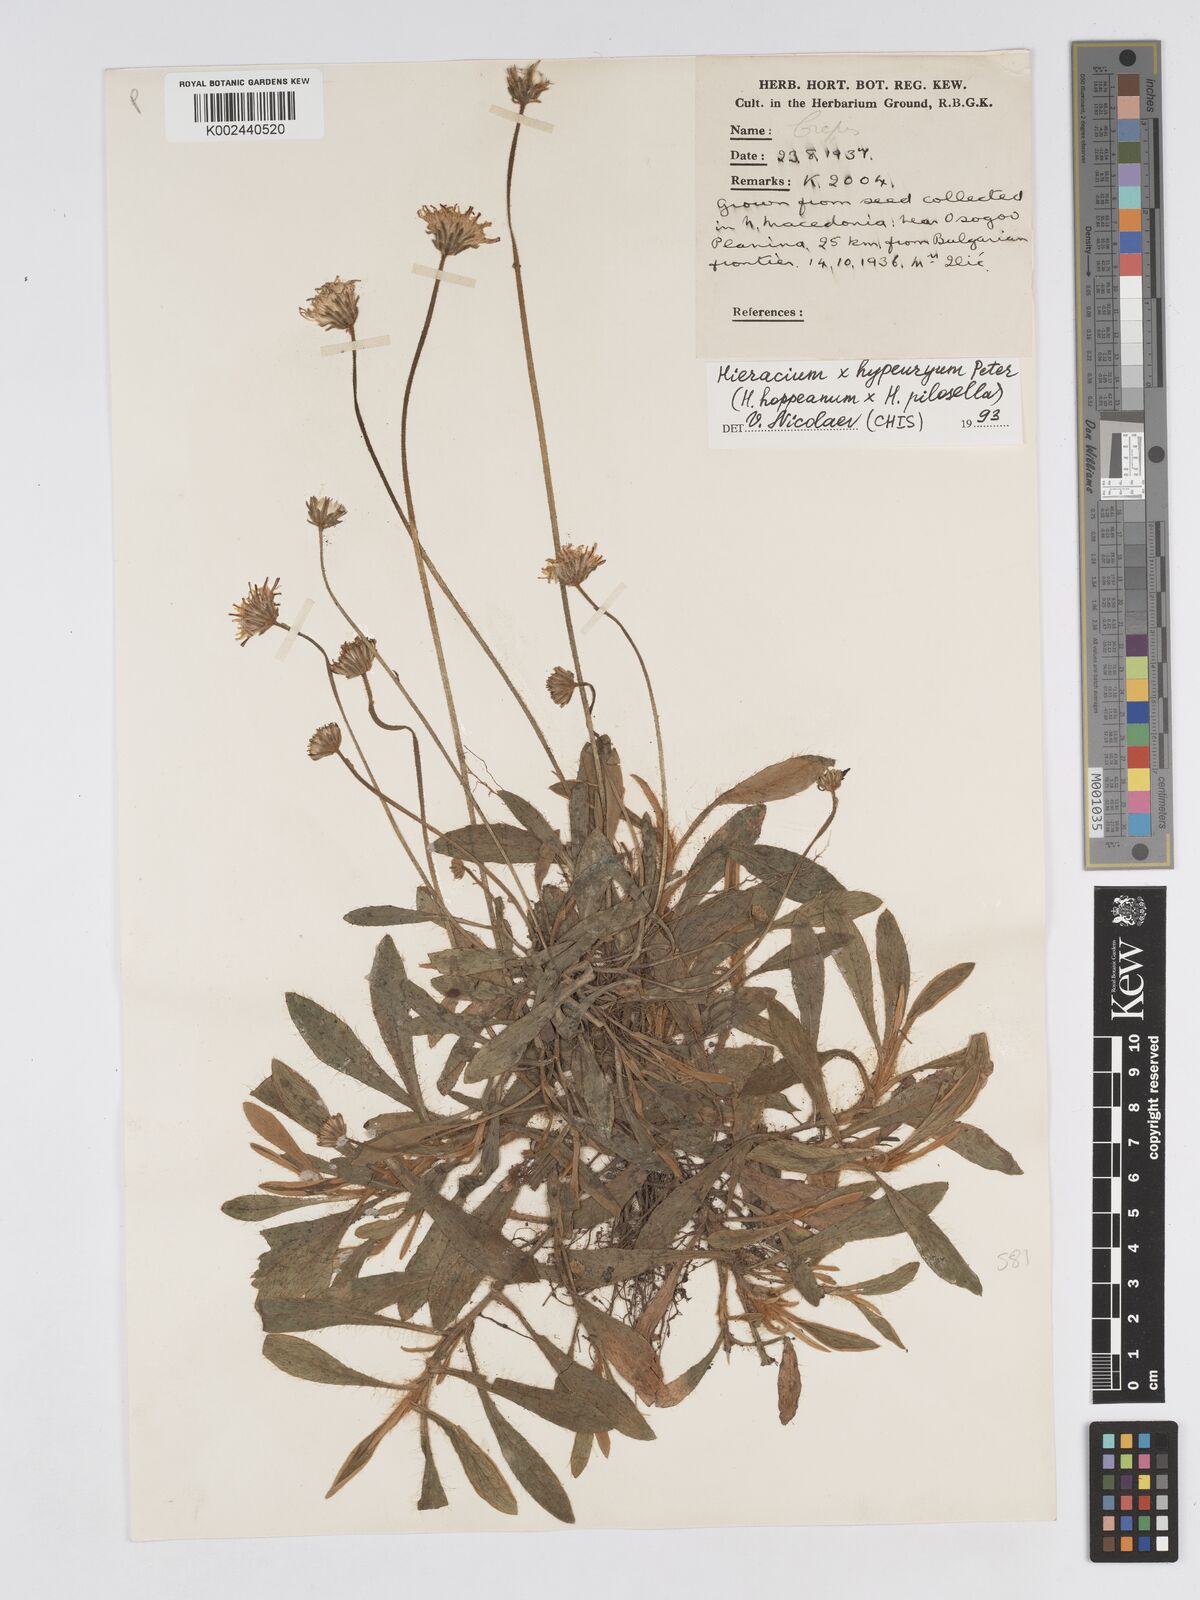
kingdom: Plantae
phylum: Tracheophyta
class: Magnoliopsida
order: Asterales
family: Asteraceae
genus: Pilosella
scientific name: Pilosella hypeurya
